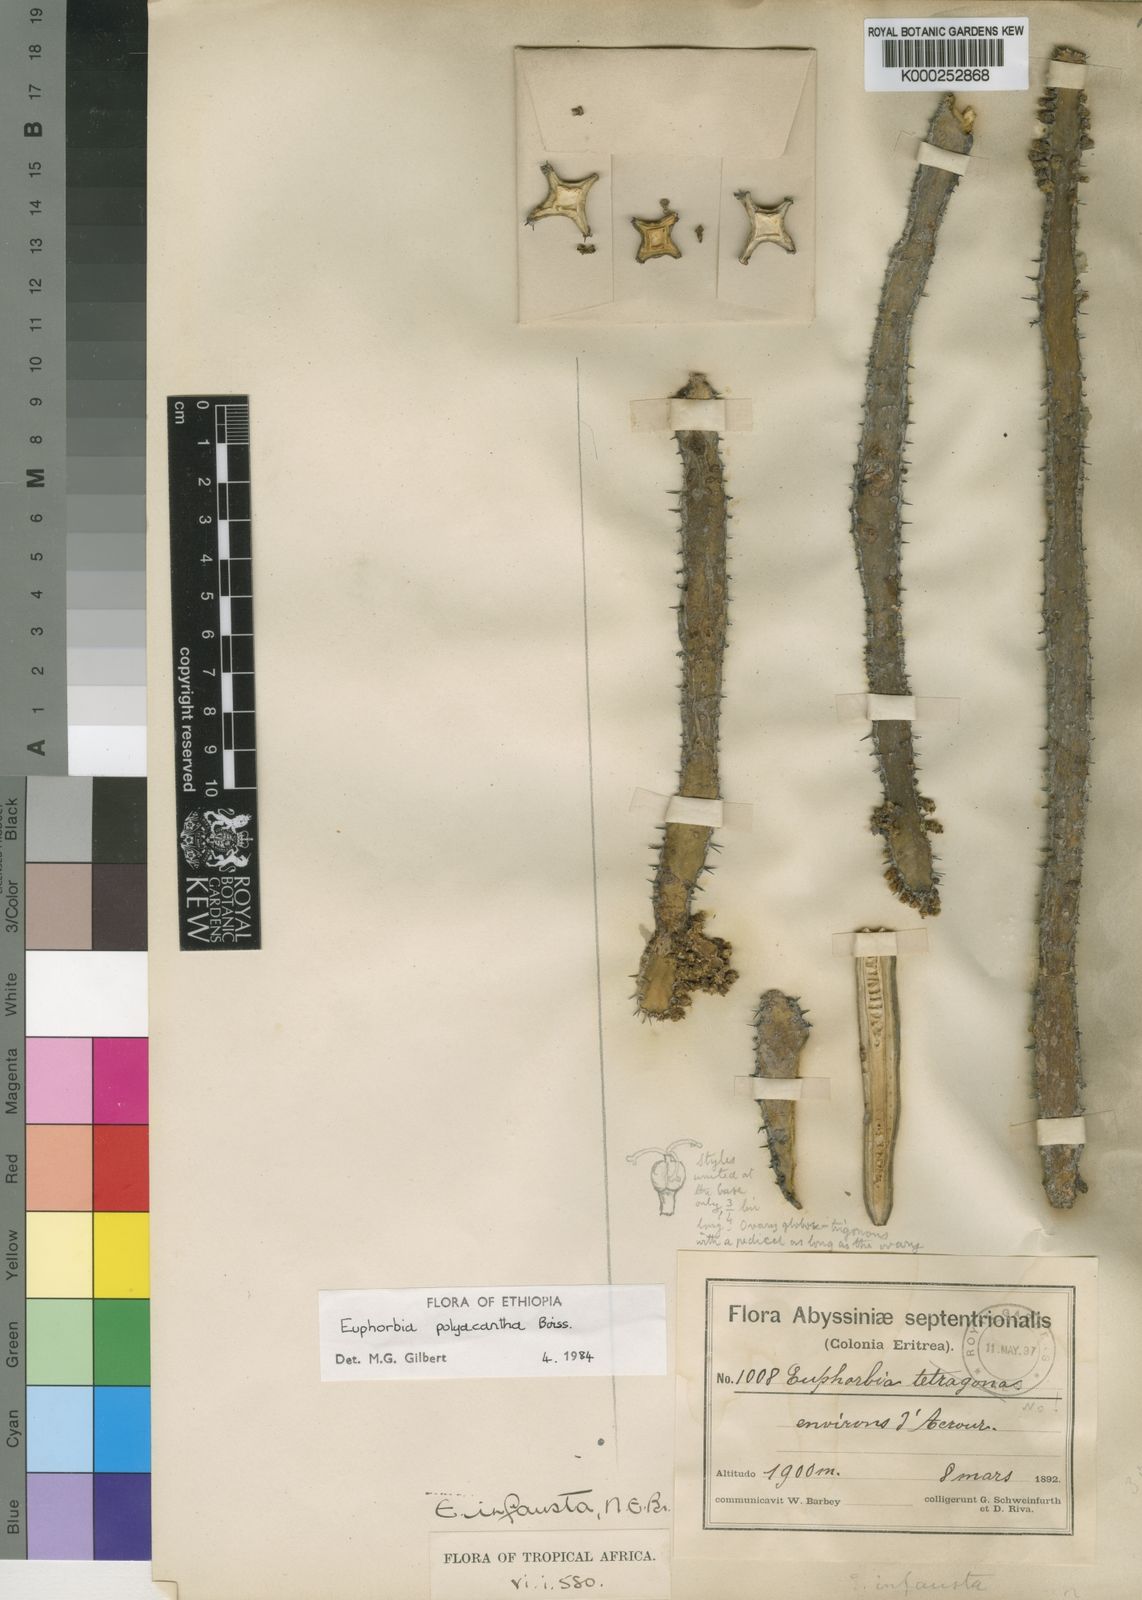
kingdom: Plantae
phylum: Tracheophyta
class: Magnoliopsida
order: Malpighiales
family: Euphorbiaceae
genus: Euphorbia
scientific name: Euphorbia polyacantha
